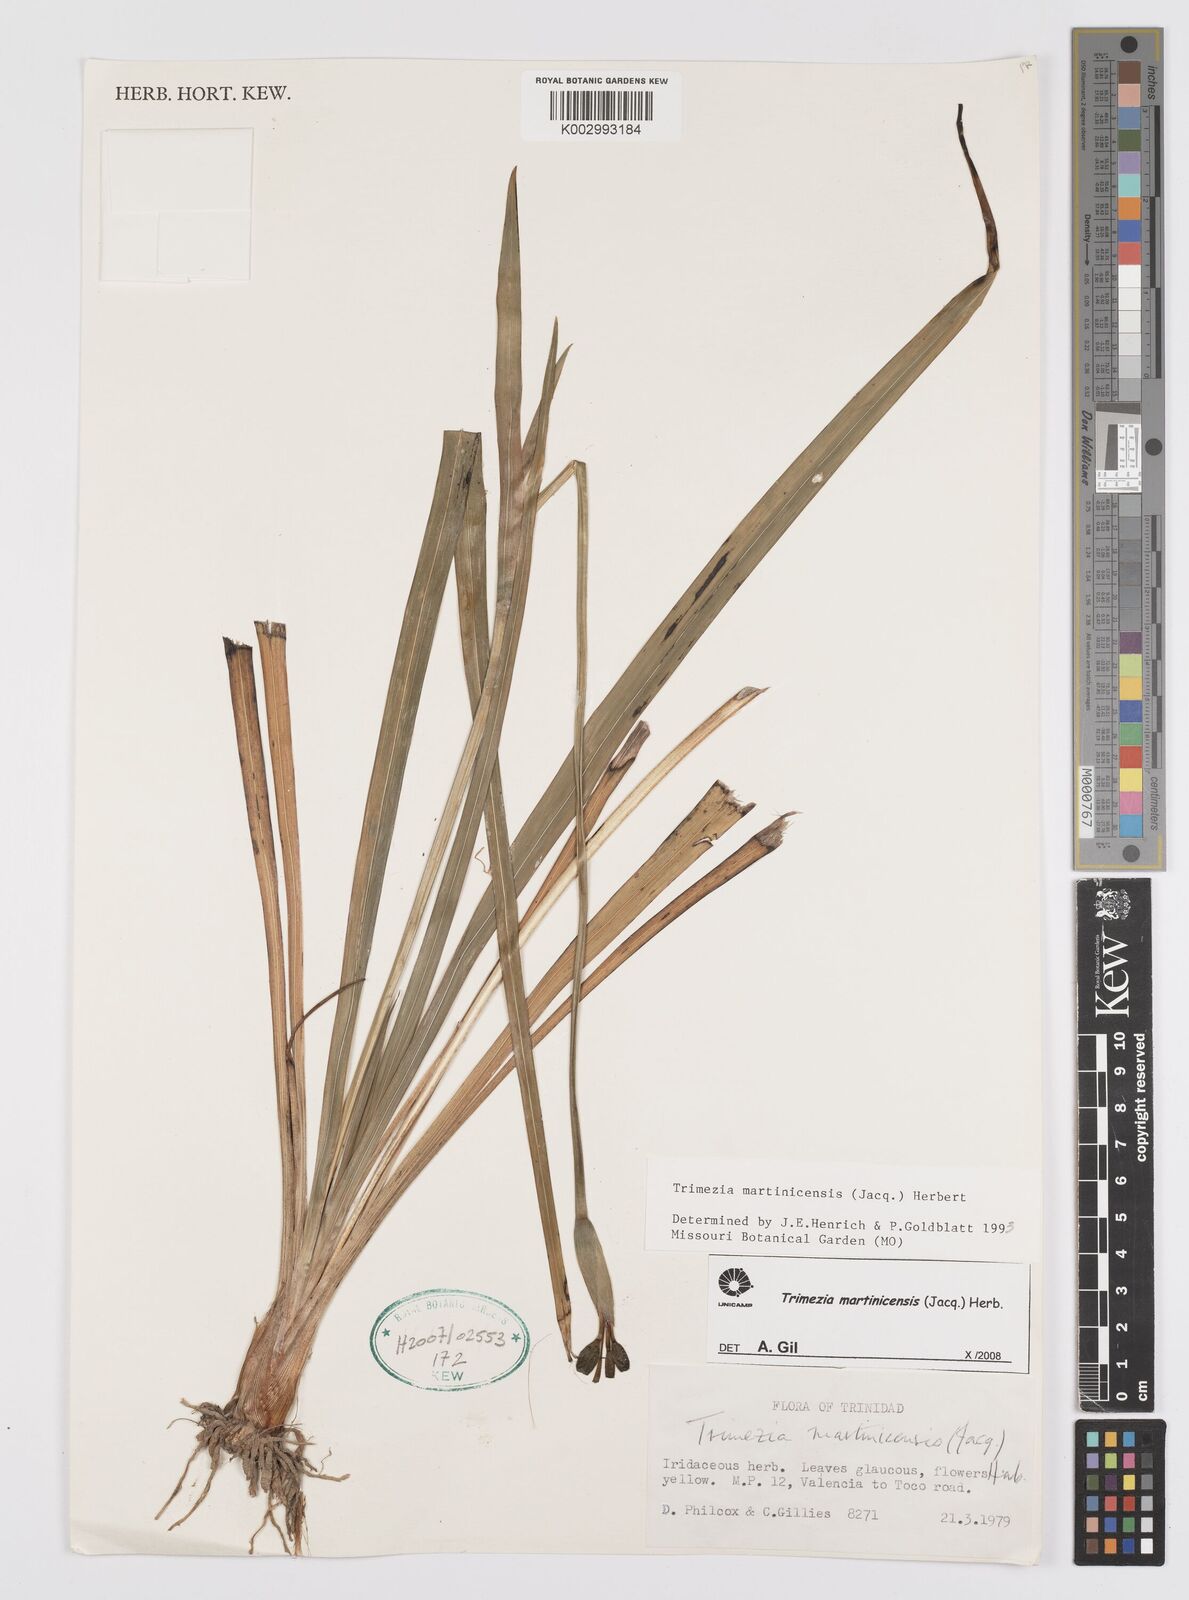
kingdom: Plantae
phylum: Tracheophyta
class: Liliopsida
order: Asparagales
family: Iridaceae
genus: Trimezia
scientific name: Trimezia martinicensis
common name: Martinique trimezia
